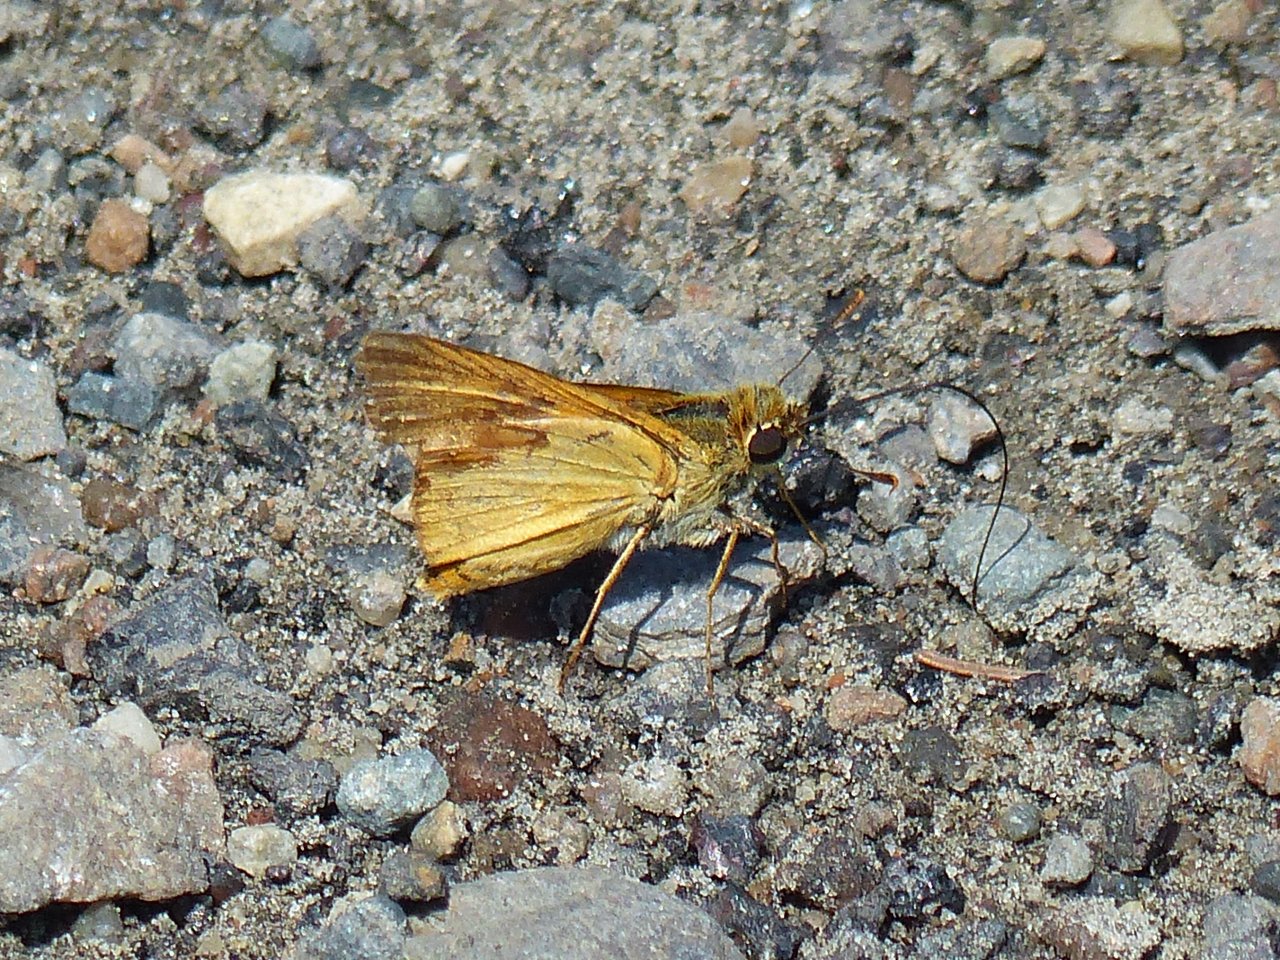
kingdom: Animalia
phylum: Arthropoda
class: Insecta
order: Lepidoptera
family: Hesperiidae
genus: Atrytone
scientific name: Atrytone delaware
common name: Delaware Skipper
